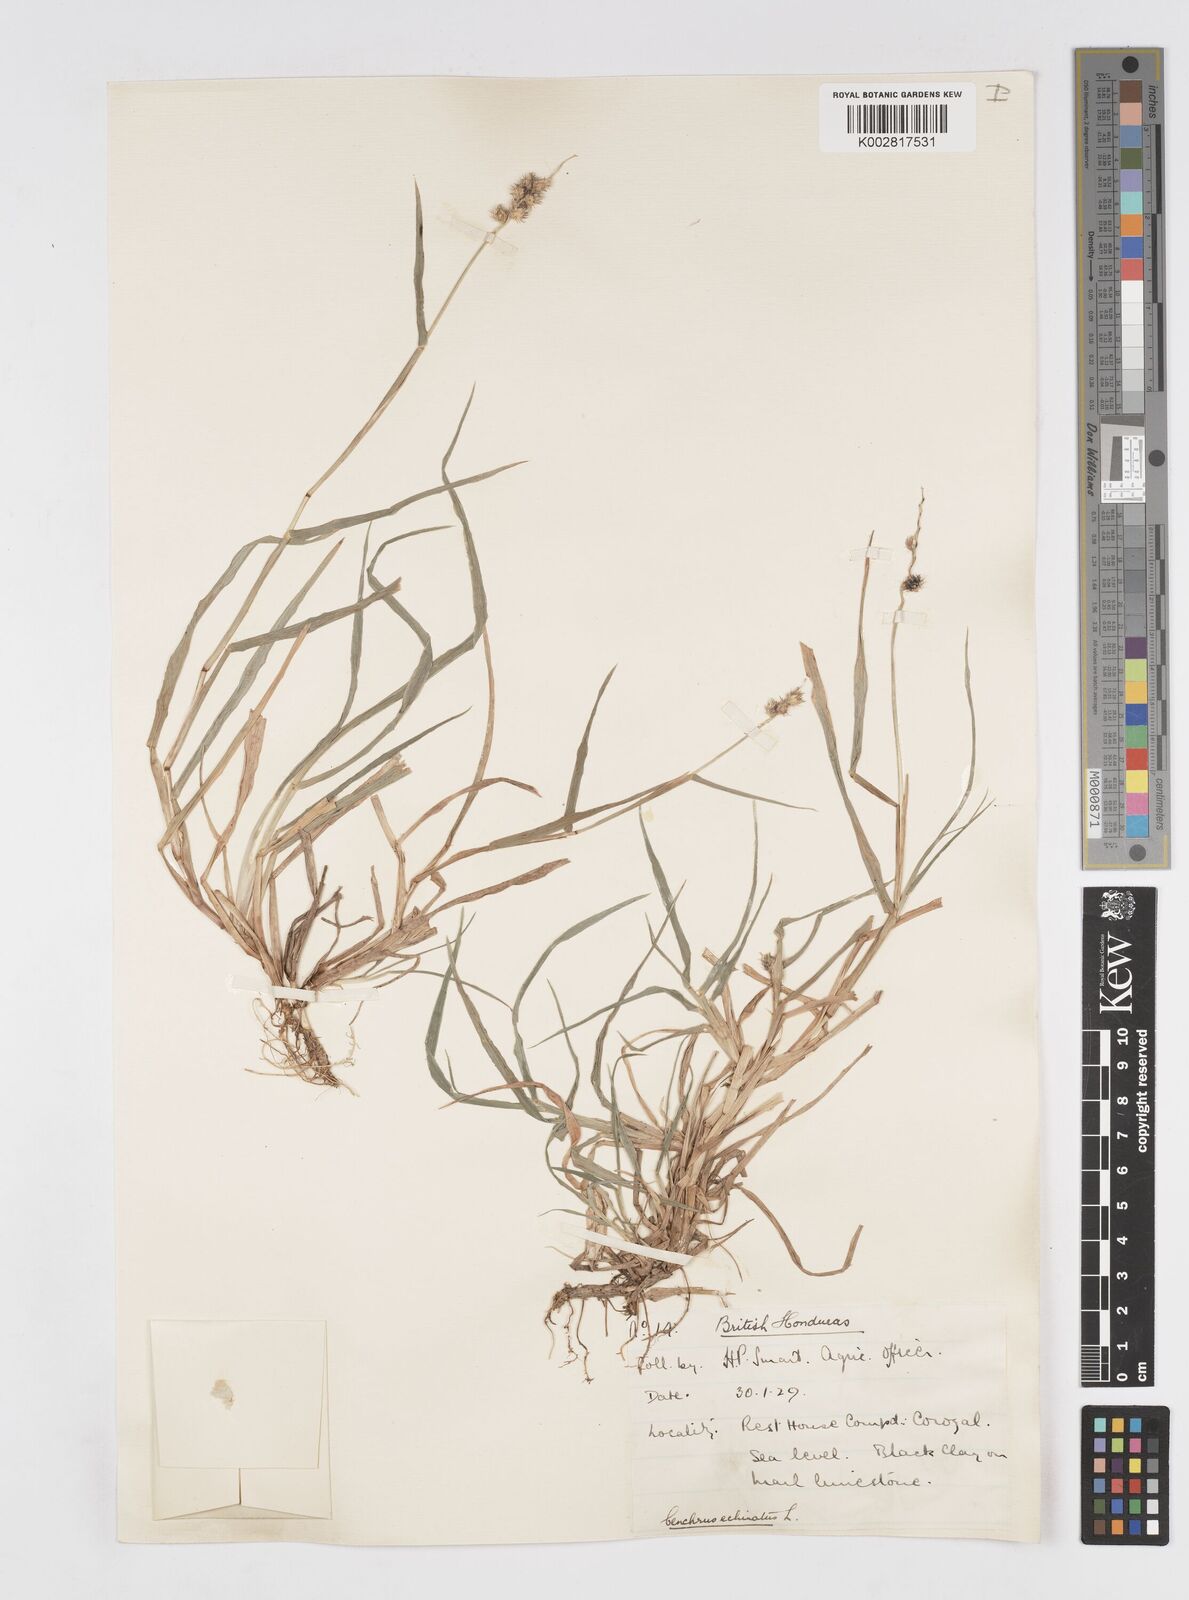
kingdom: Plantae
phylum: Tracheophyta
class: Liliopsida
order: Poales
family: Poaceae
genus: Cenchrus
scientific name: Cenchrus
